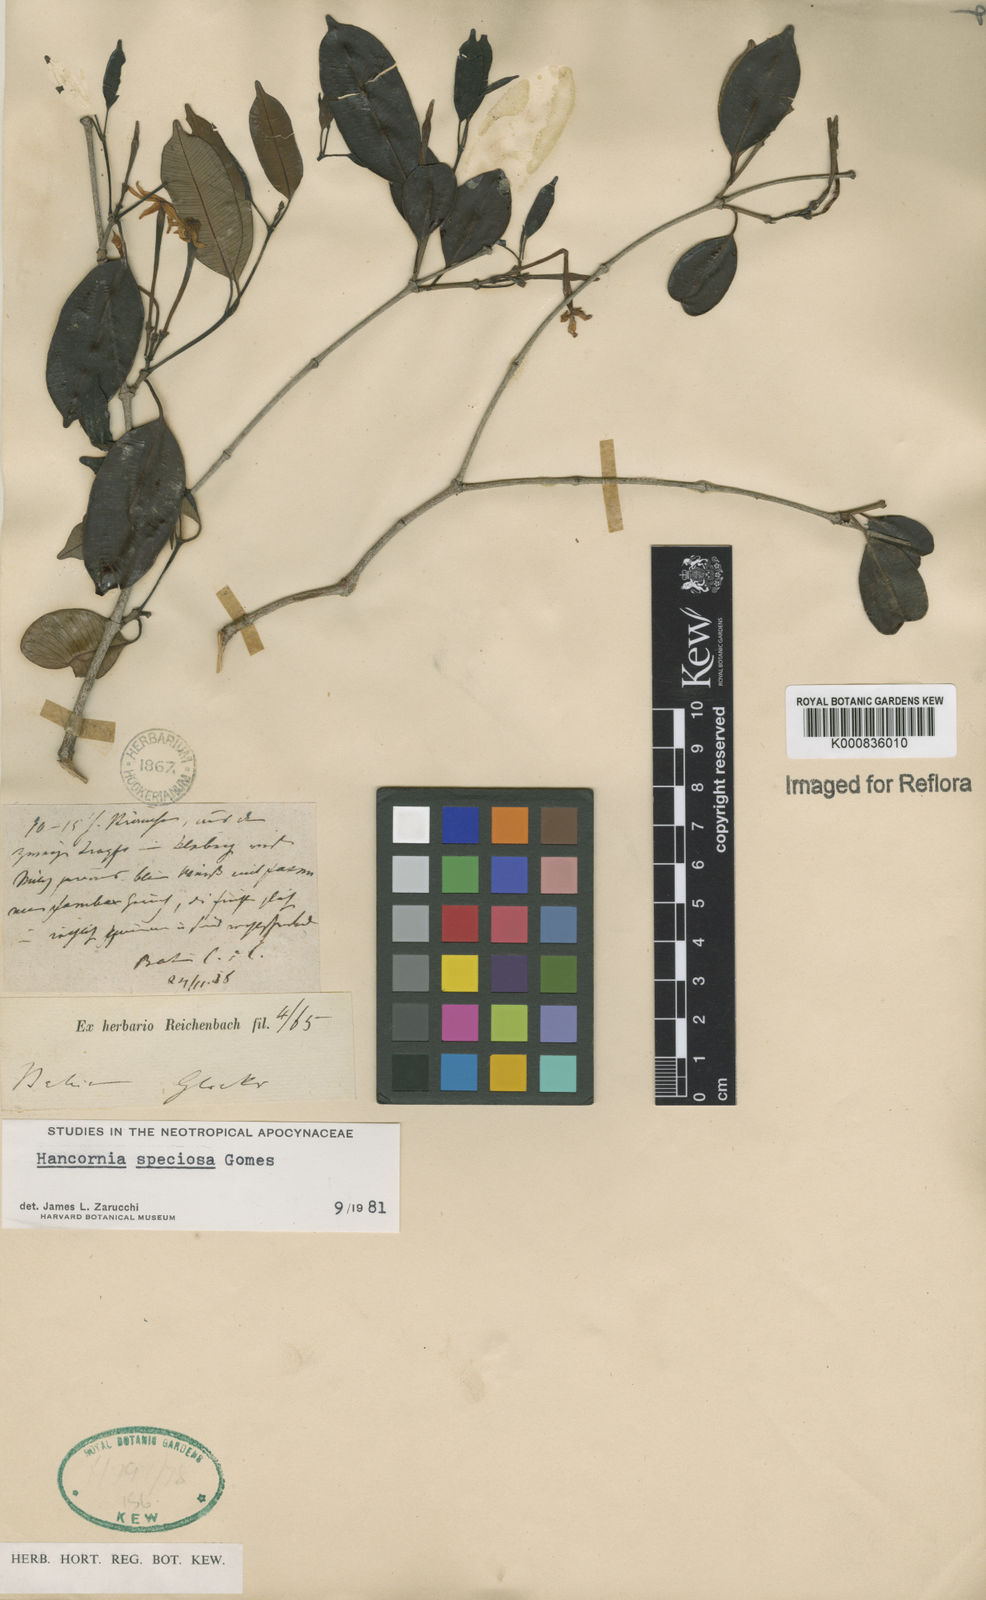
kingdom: Plantae
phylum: Tracheophyta
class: Magnoliopsida
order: Gentianales
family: Apocynaceae
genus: Hancornia
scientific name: Hancornia speciosa
